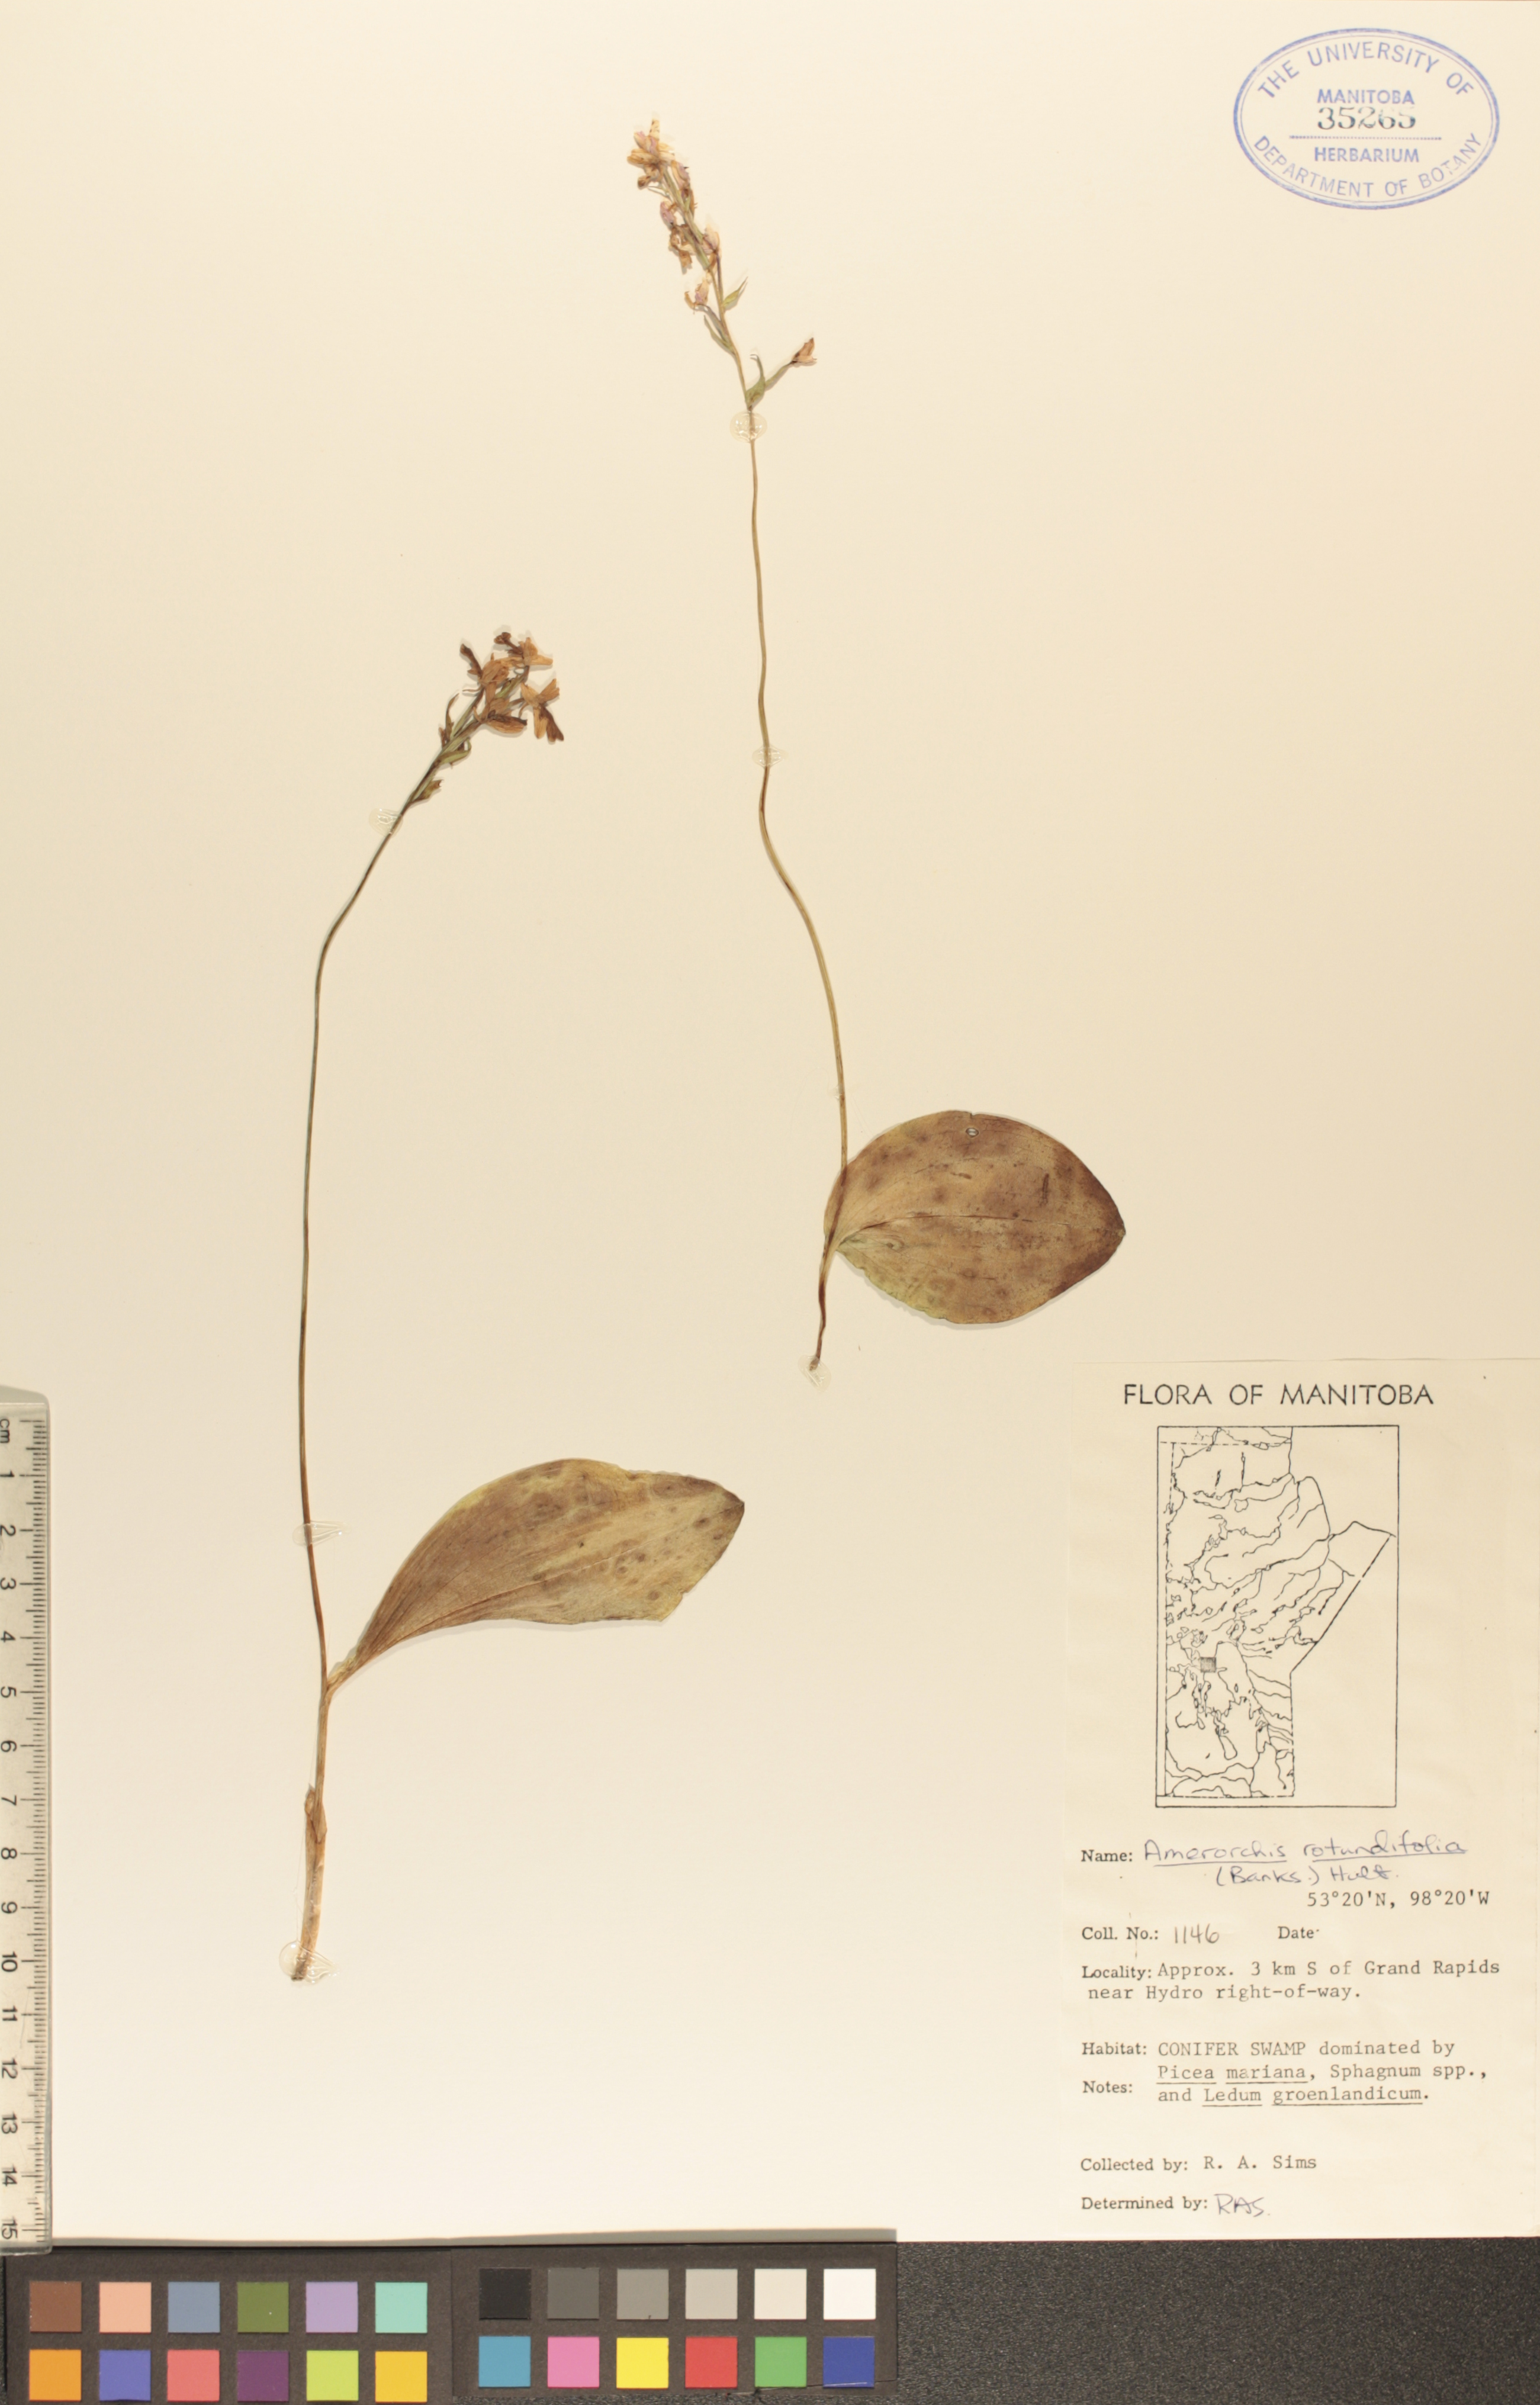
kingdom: Plantae
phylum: Tracheophyta
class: Liliopsida
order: Asparagales
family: Orchidaceae
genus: Galearis
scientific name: Galearis rotundifolia
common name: One-leaved orchis
